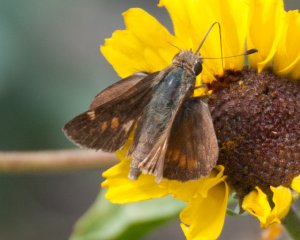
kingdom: Animalia
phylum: Arthropoda
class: Insecta
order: Lepidoptera
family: Hesperiidae
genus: Lon
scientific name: Lon melane
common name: Umber Skipper
